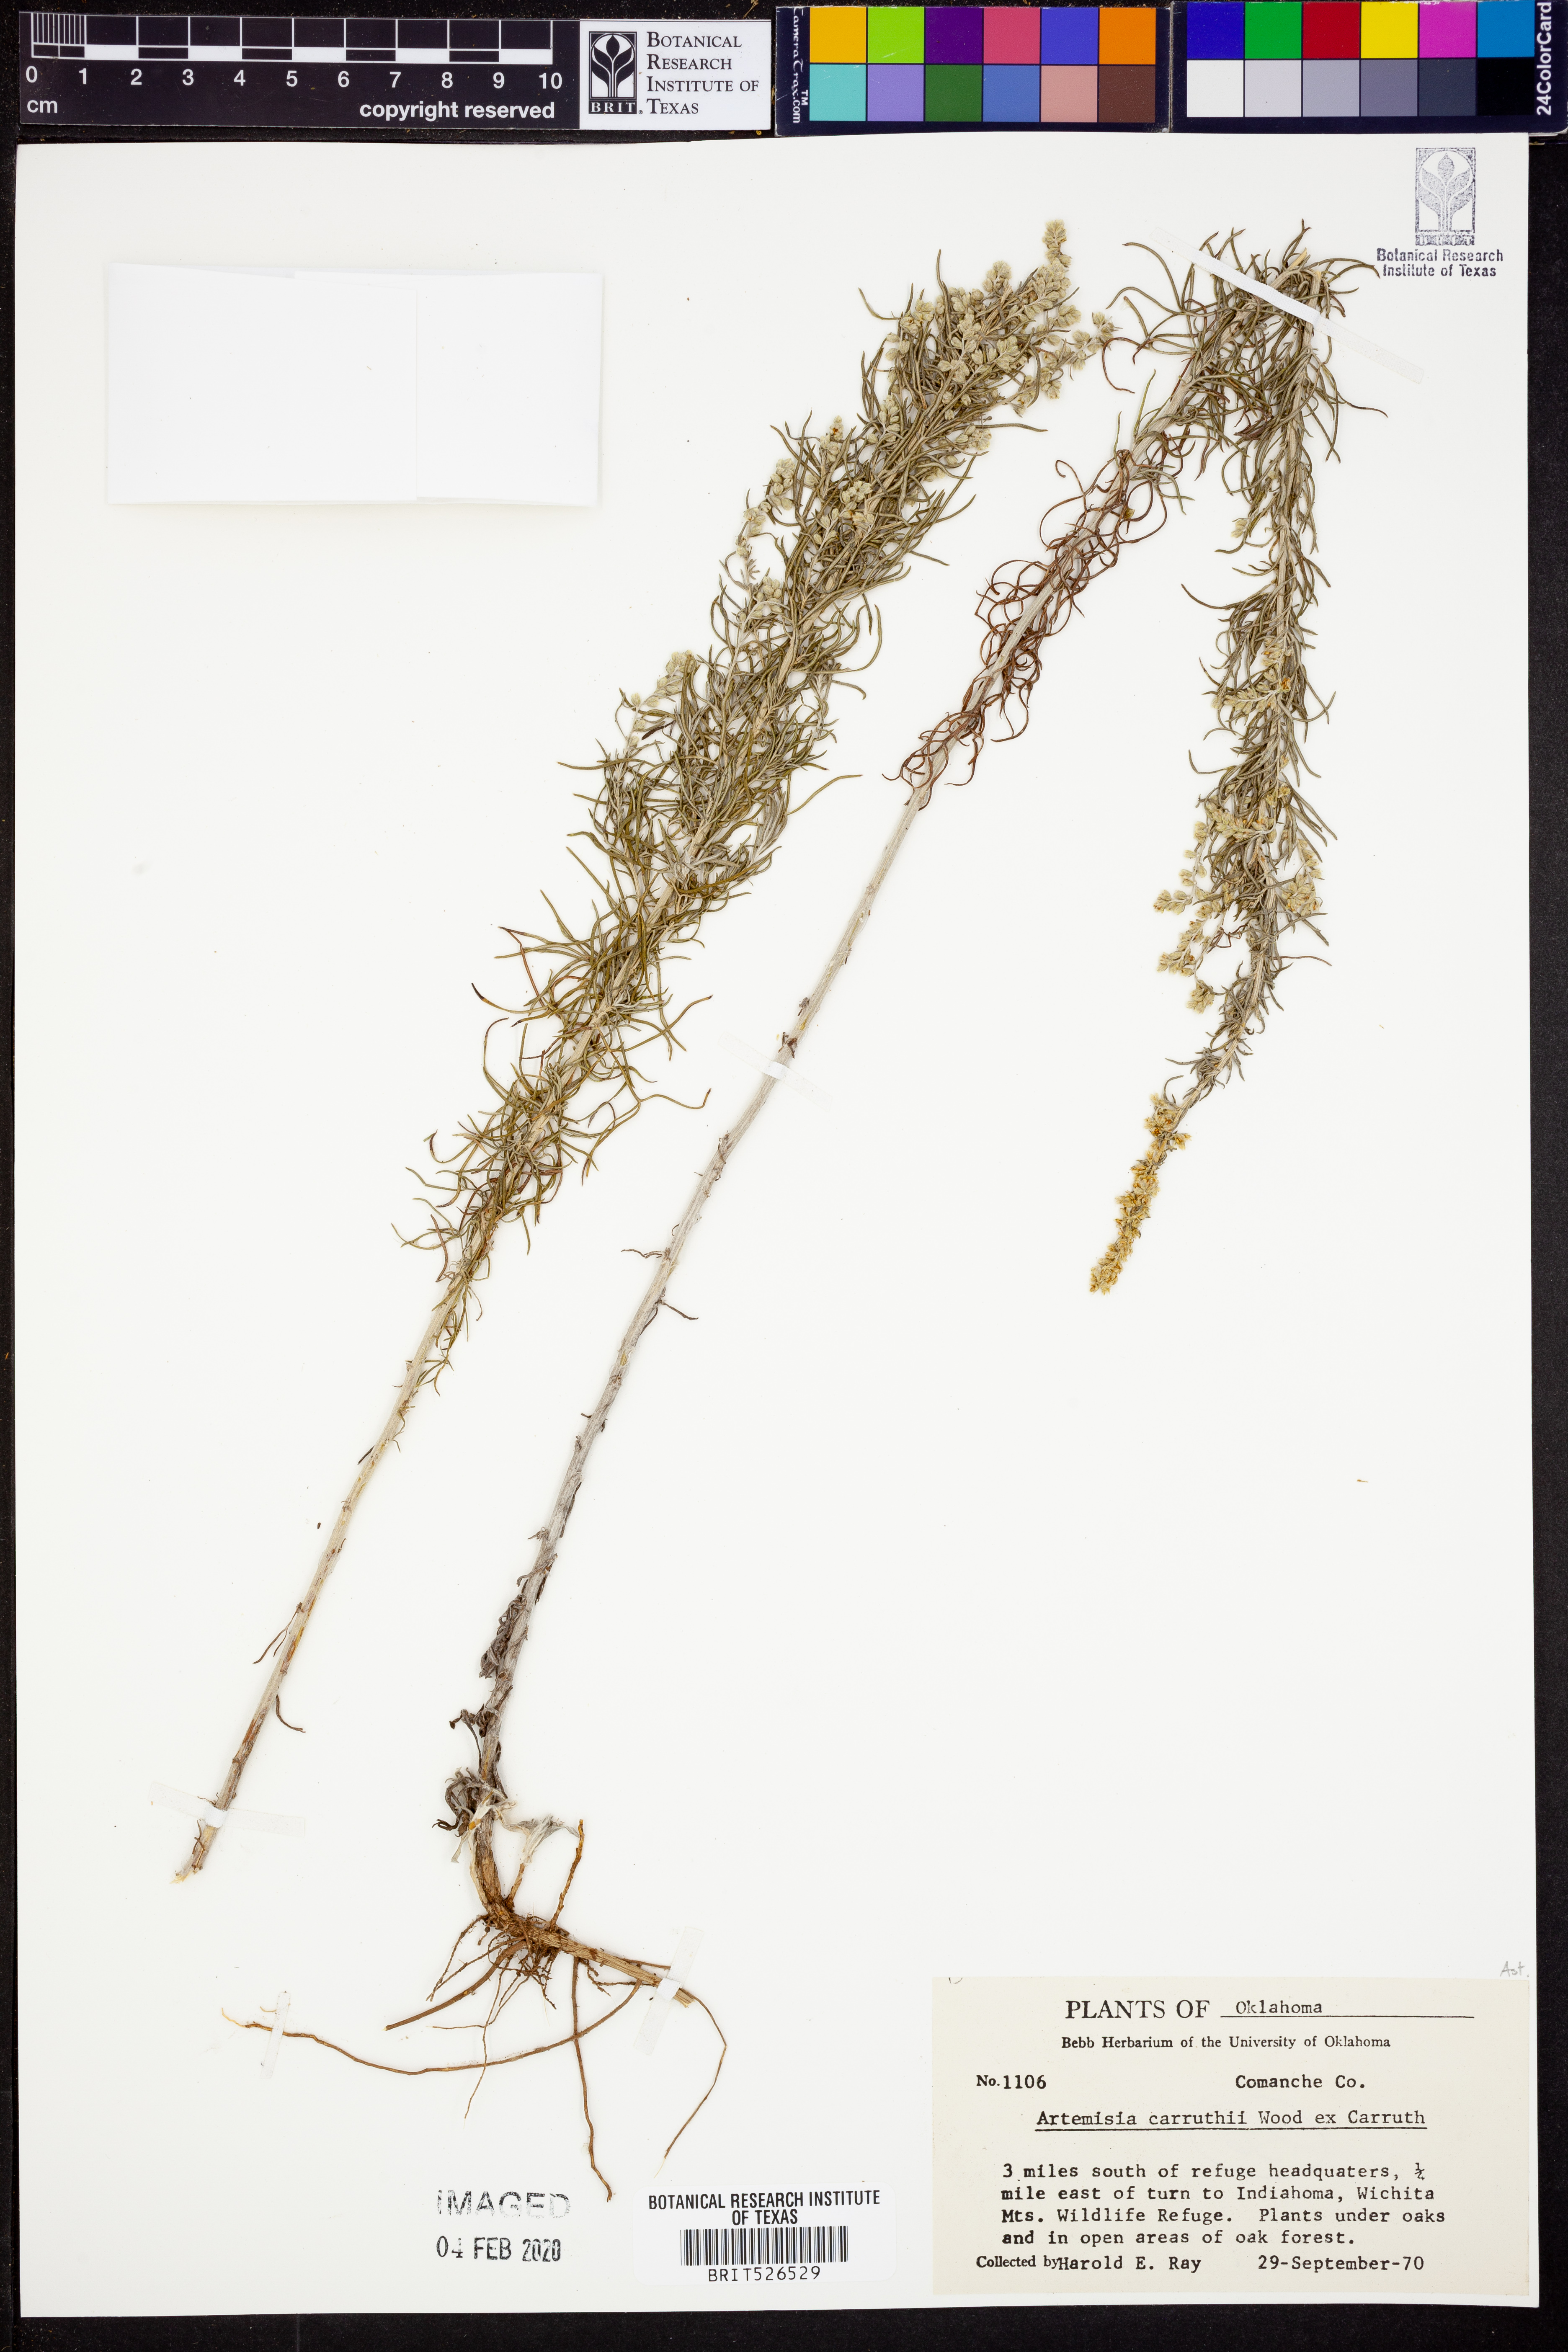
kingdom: Plantae
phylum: Tracheophyta
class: Magnoliopsida
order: Asterales
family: Asteraceae
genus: Artemisia
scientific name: Artemisia carruthii
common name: Carruth wormwood
